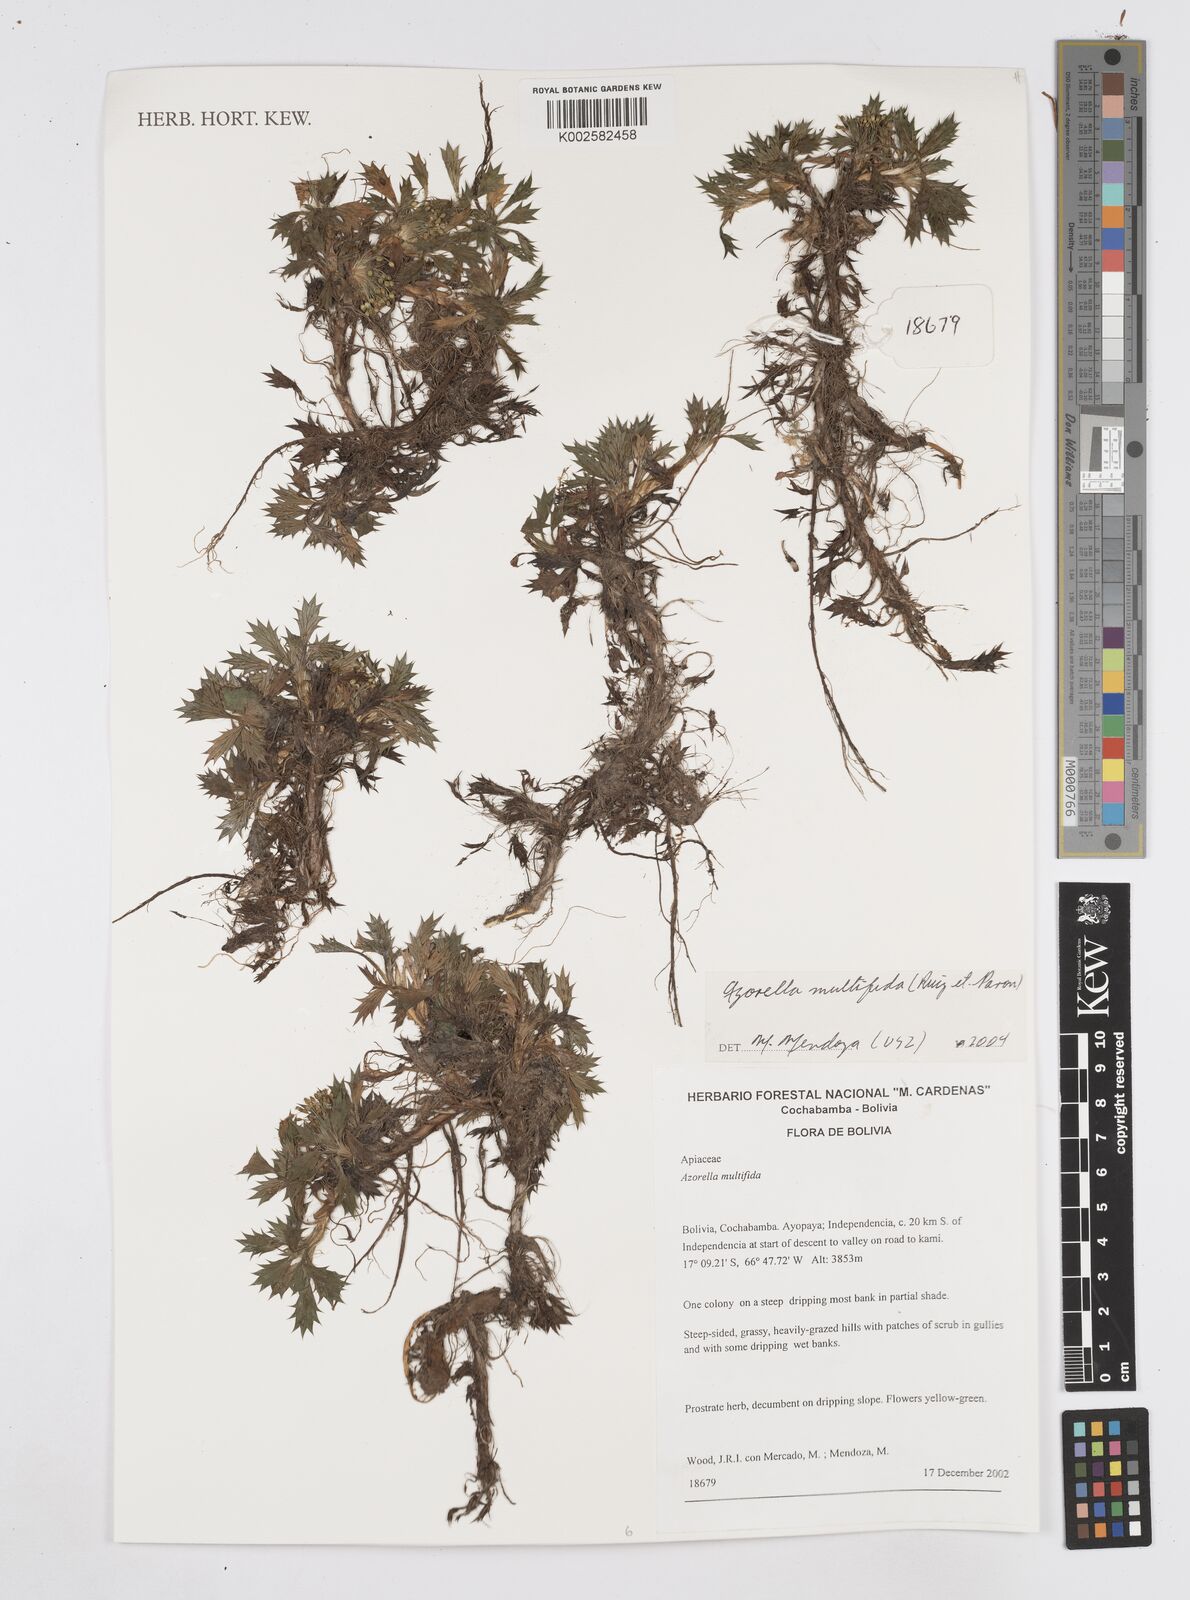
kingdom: Plantae
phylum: Tracheophyta
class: Magnoliopsida
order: Apiales
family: Apiaceae
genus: Azorella
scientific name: Azorella multifida
